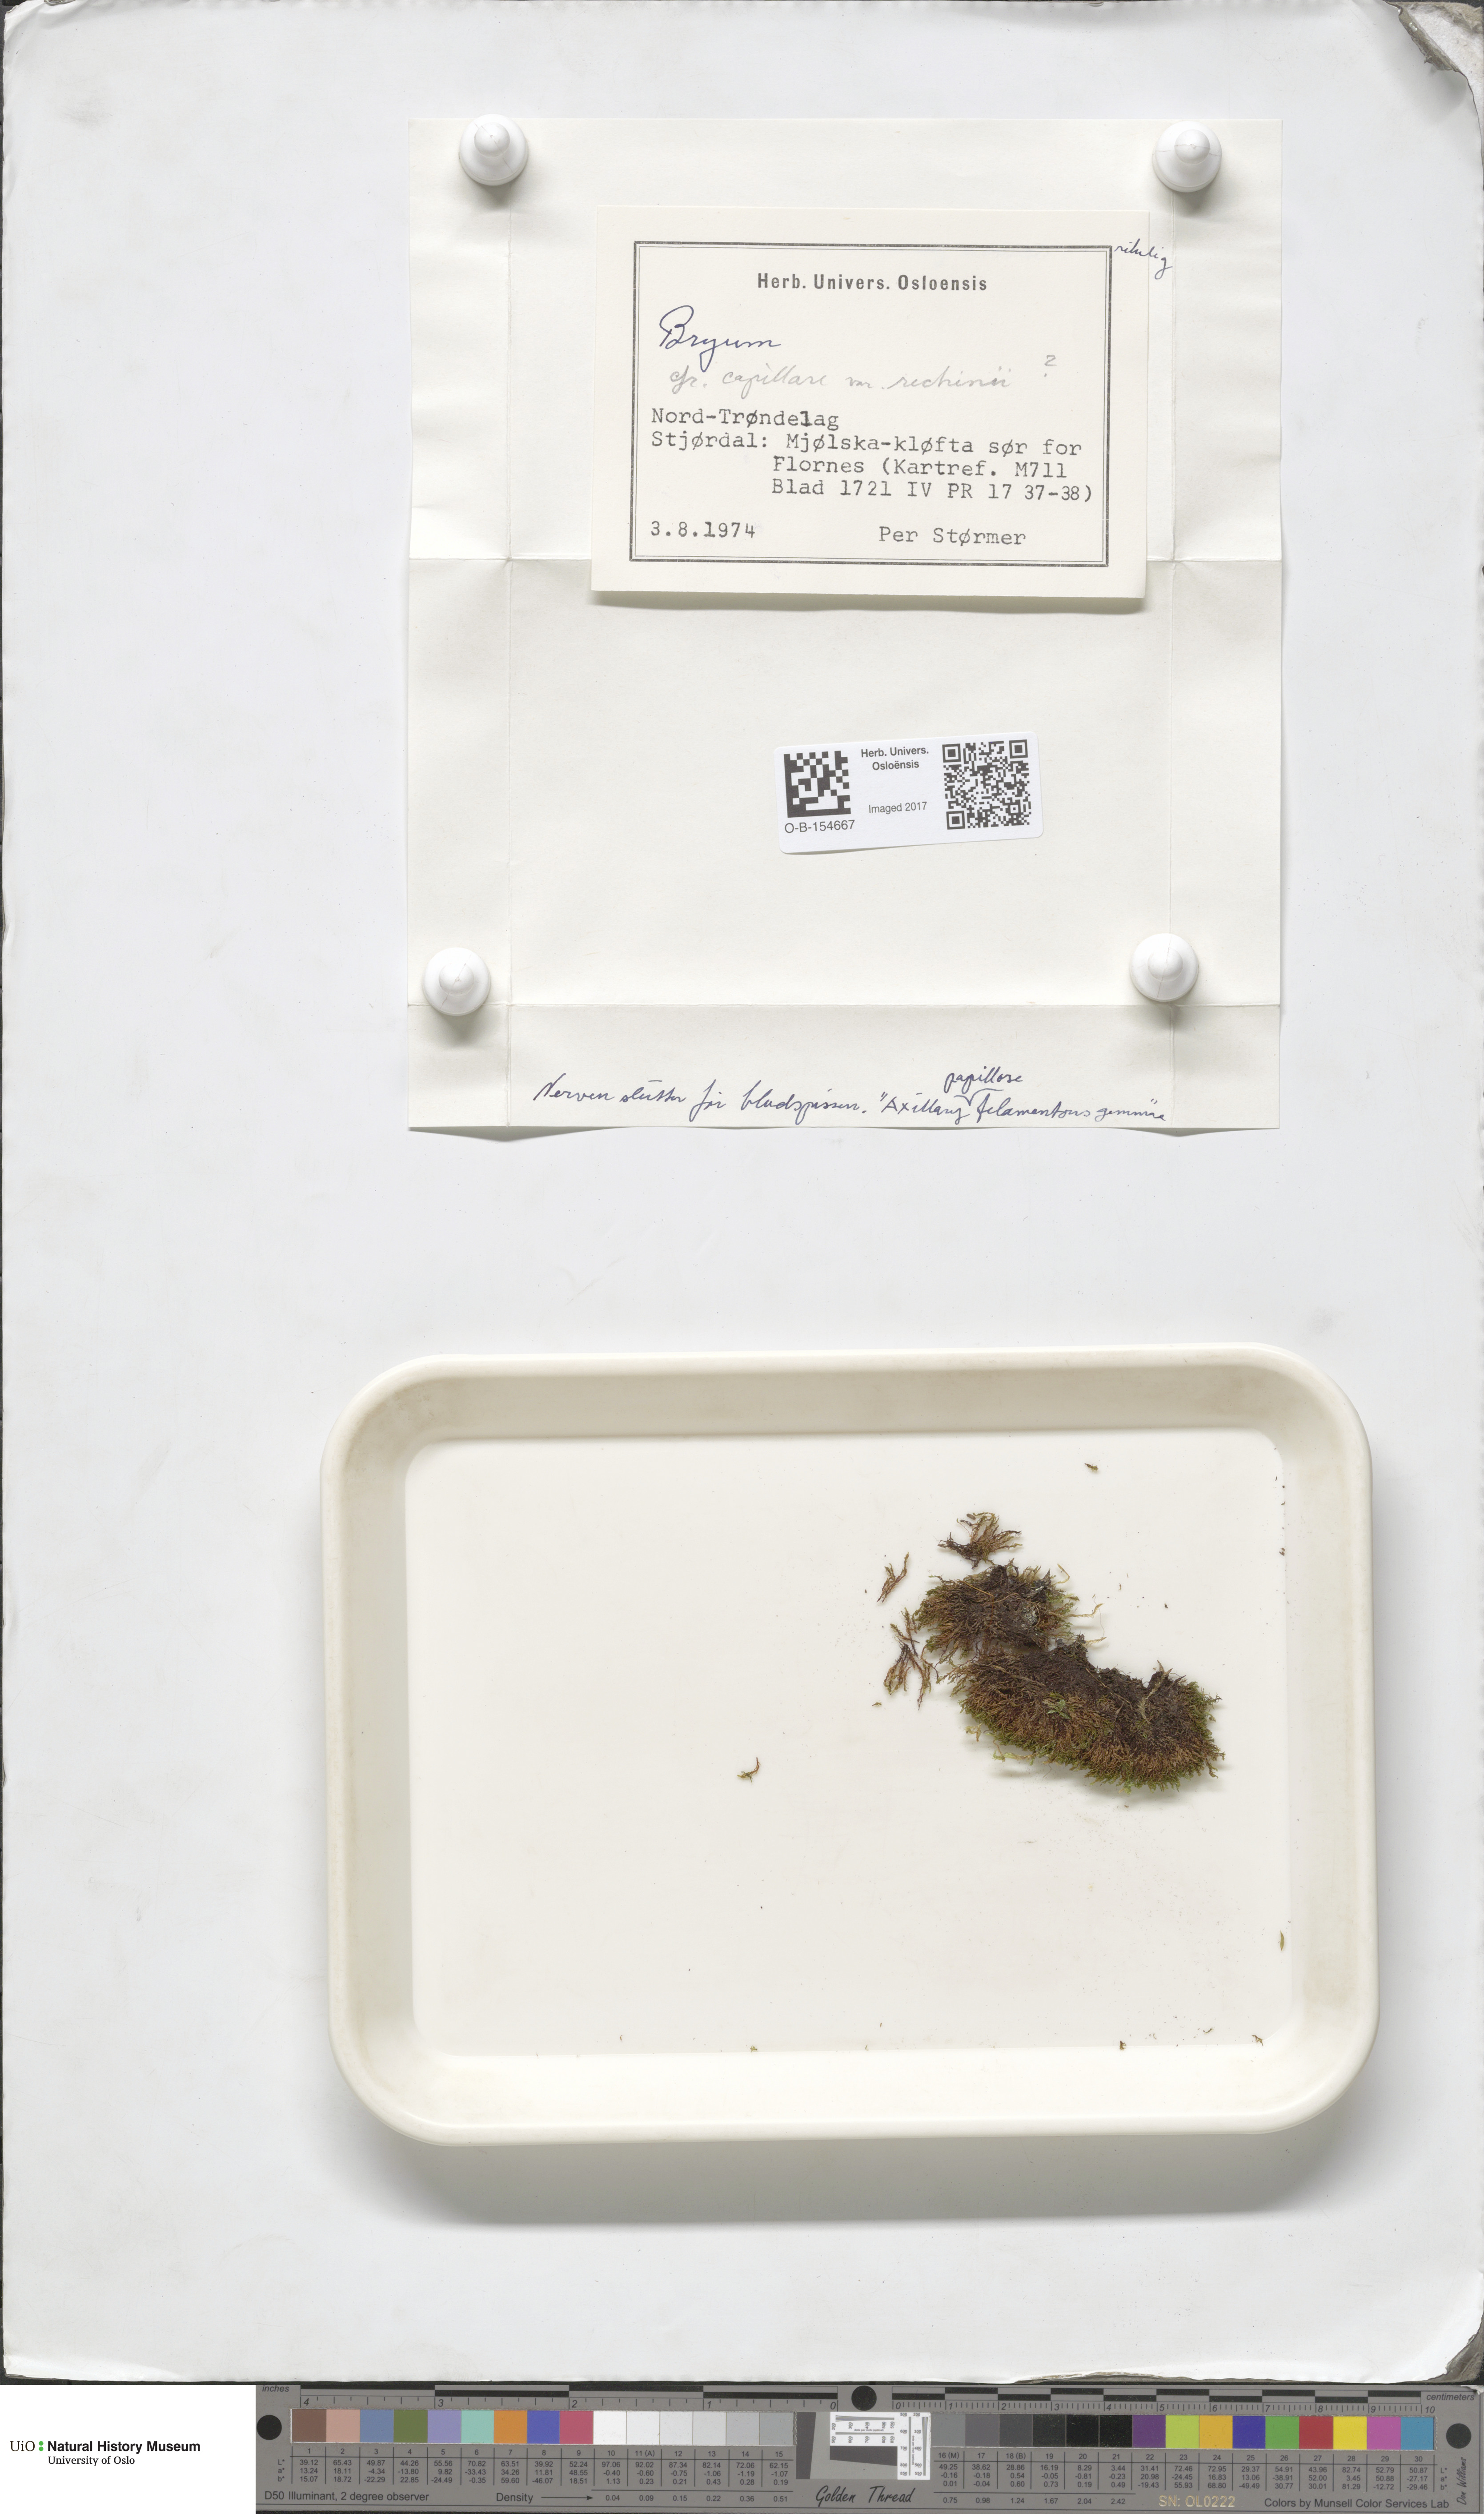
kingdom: Plantae
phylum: Bryophyta
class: Bryopsida
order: Bryales
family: Bryaceae
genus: Rosulabryum
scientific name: Rosulabryum capillare
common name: Capillary thread-moss
